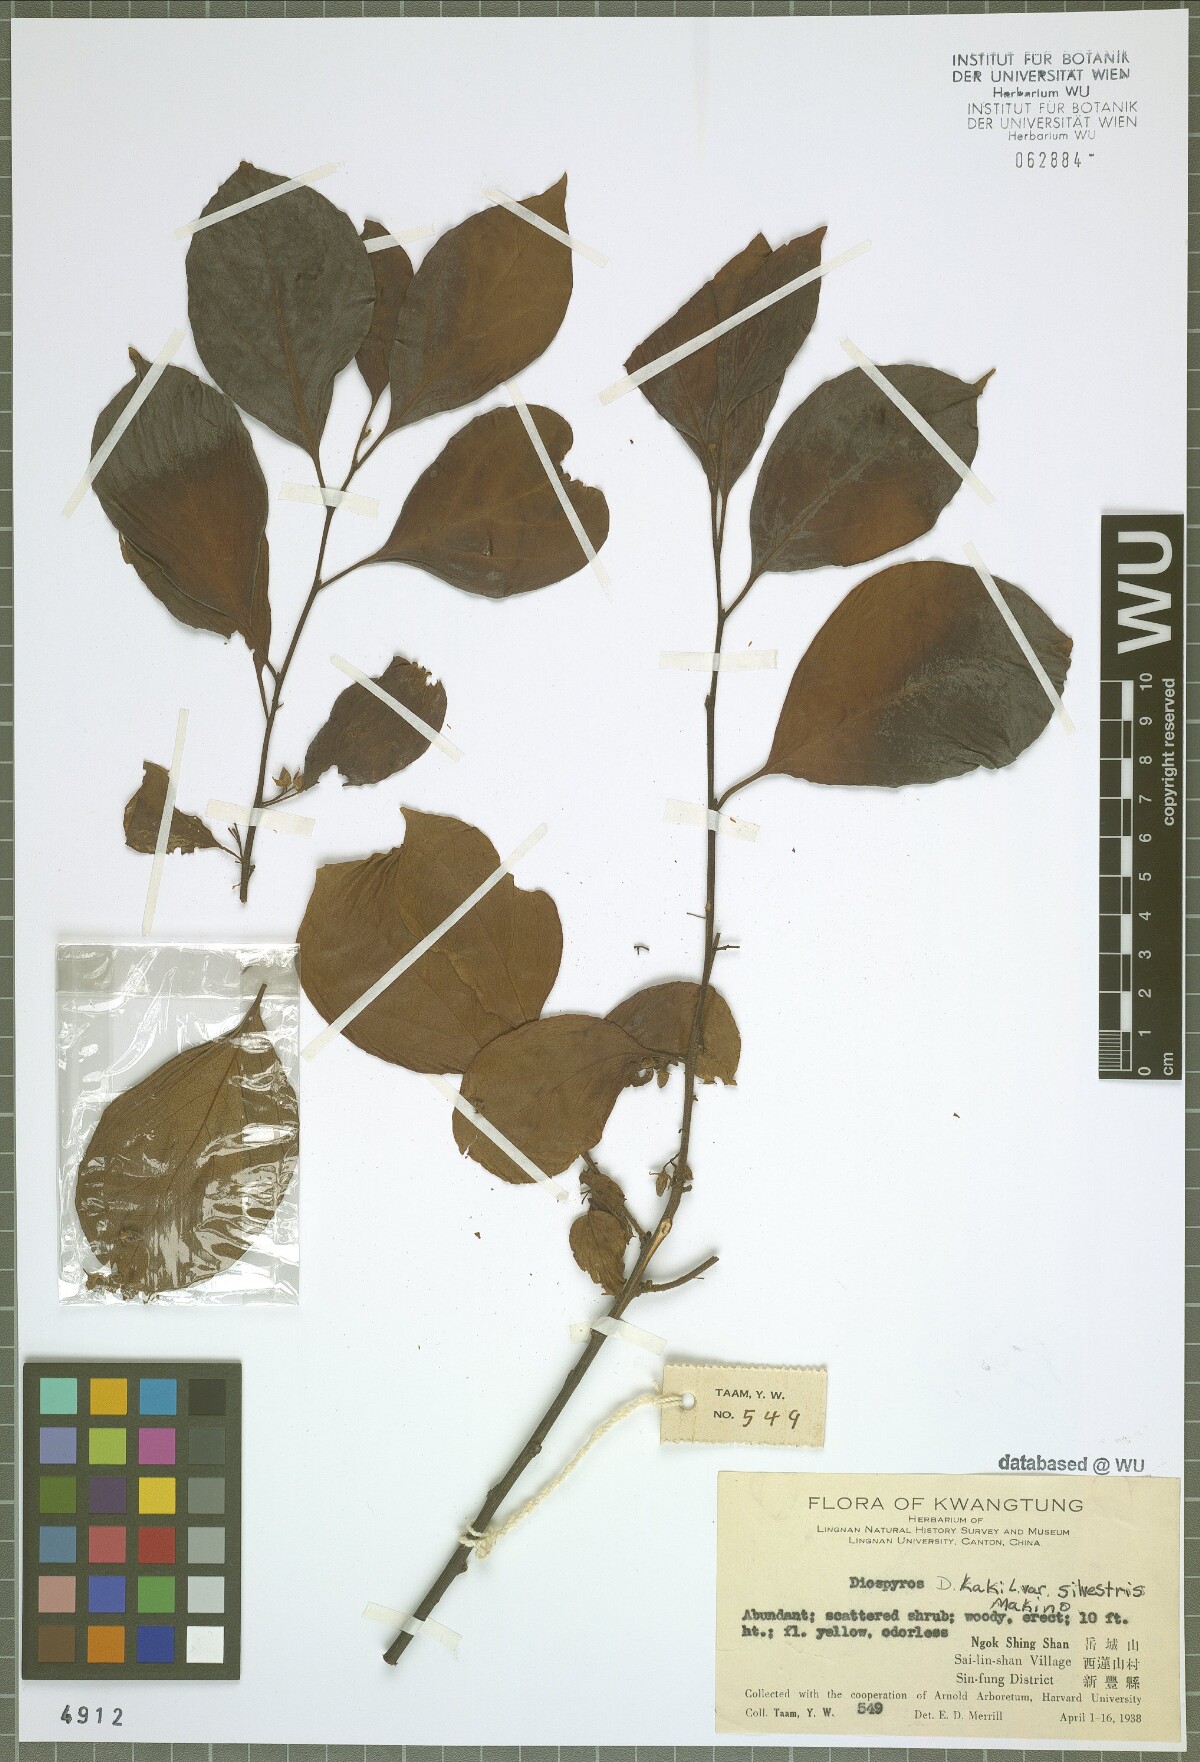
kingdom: Plantae
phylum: Tracheophyta
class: Magnoliopsida
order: Ericales
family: Ebenaceae
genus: Diospyros
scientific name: Diospyros kaki
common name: Persimmon
